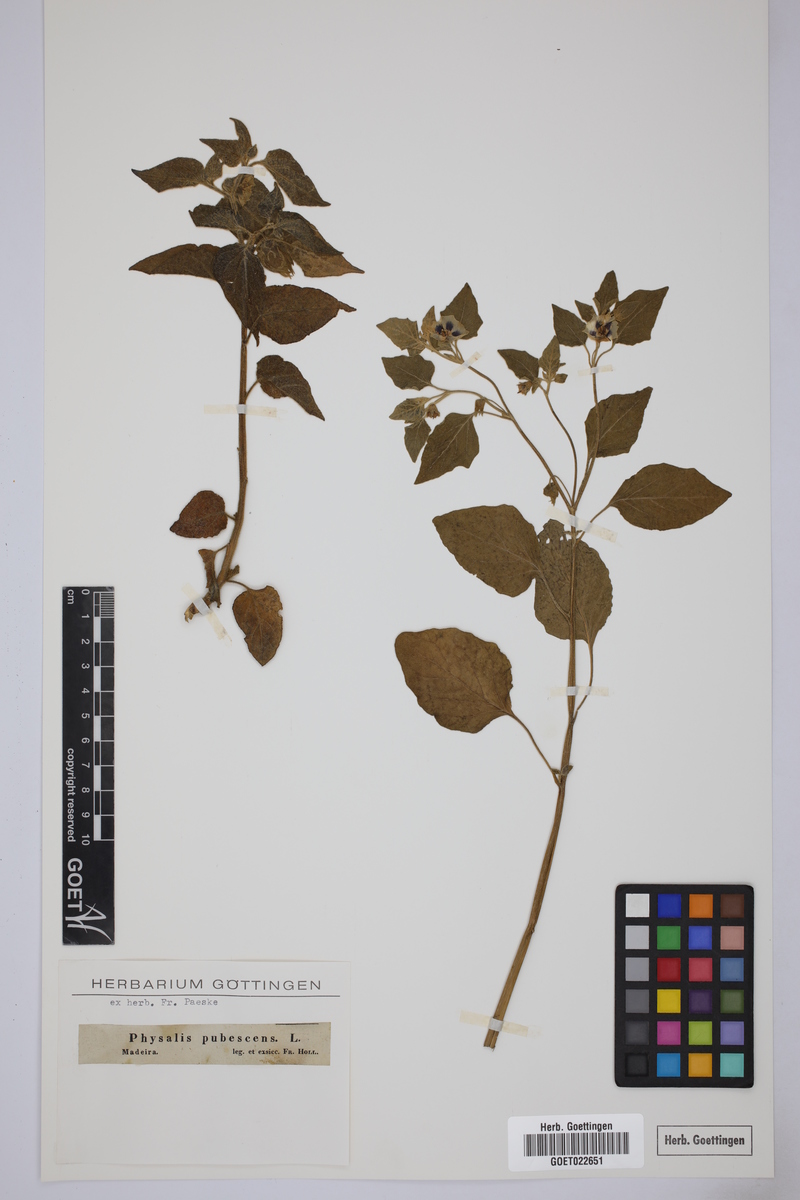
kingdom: Plantae
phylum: Tracheophyta
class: Magnoliopsida
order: Solanales
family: Solanaceae
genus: Physalis
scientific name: Physalis pubescens
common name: Downy ground-cherry
